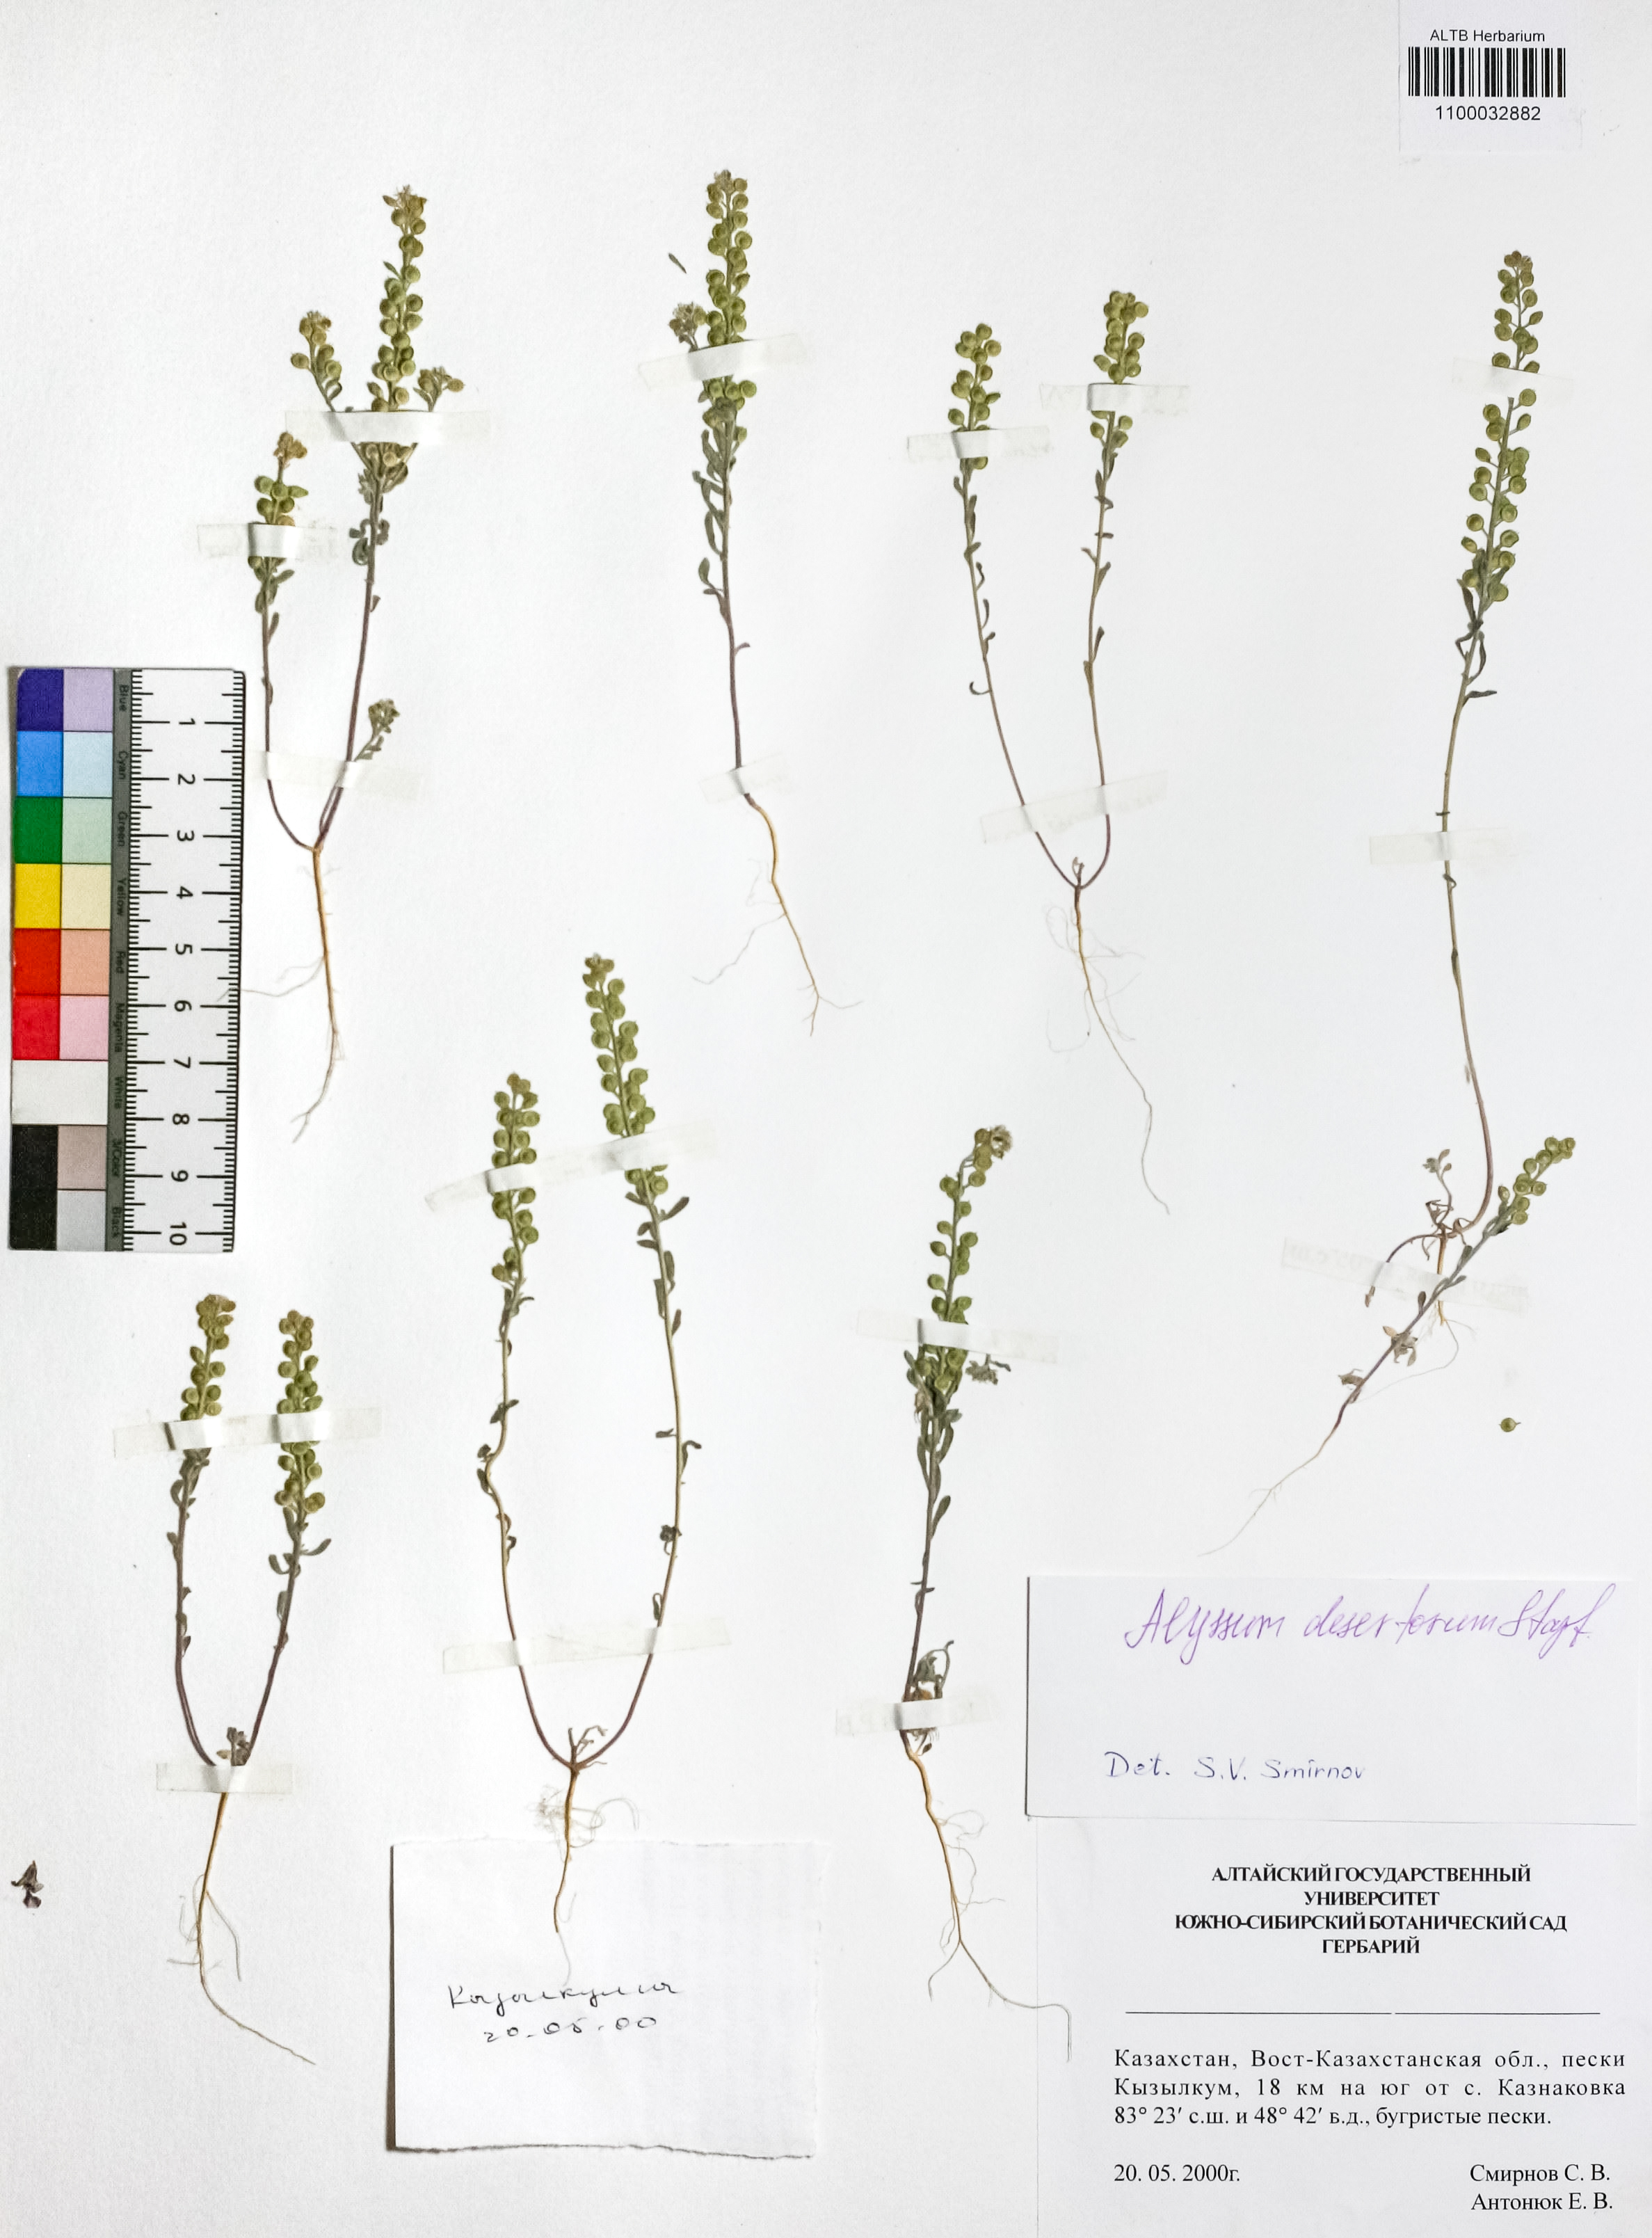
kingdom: Plantae
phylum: Tracheophyta
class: Magnoliopsida
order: Brassicales
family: Brassicaceae
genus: Alyssum
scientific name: Alyssum turkestanicum
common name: Desert alyssum
